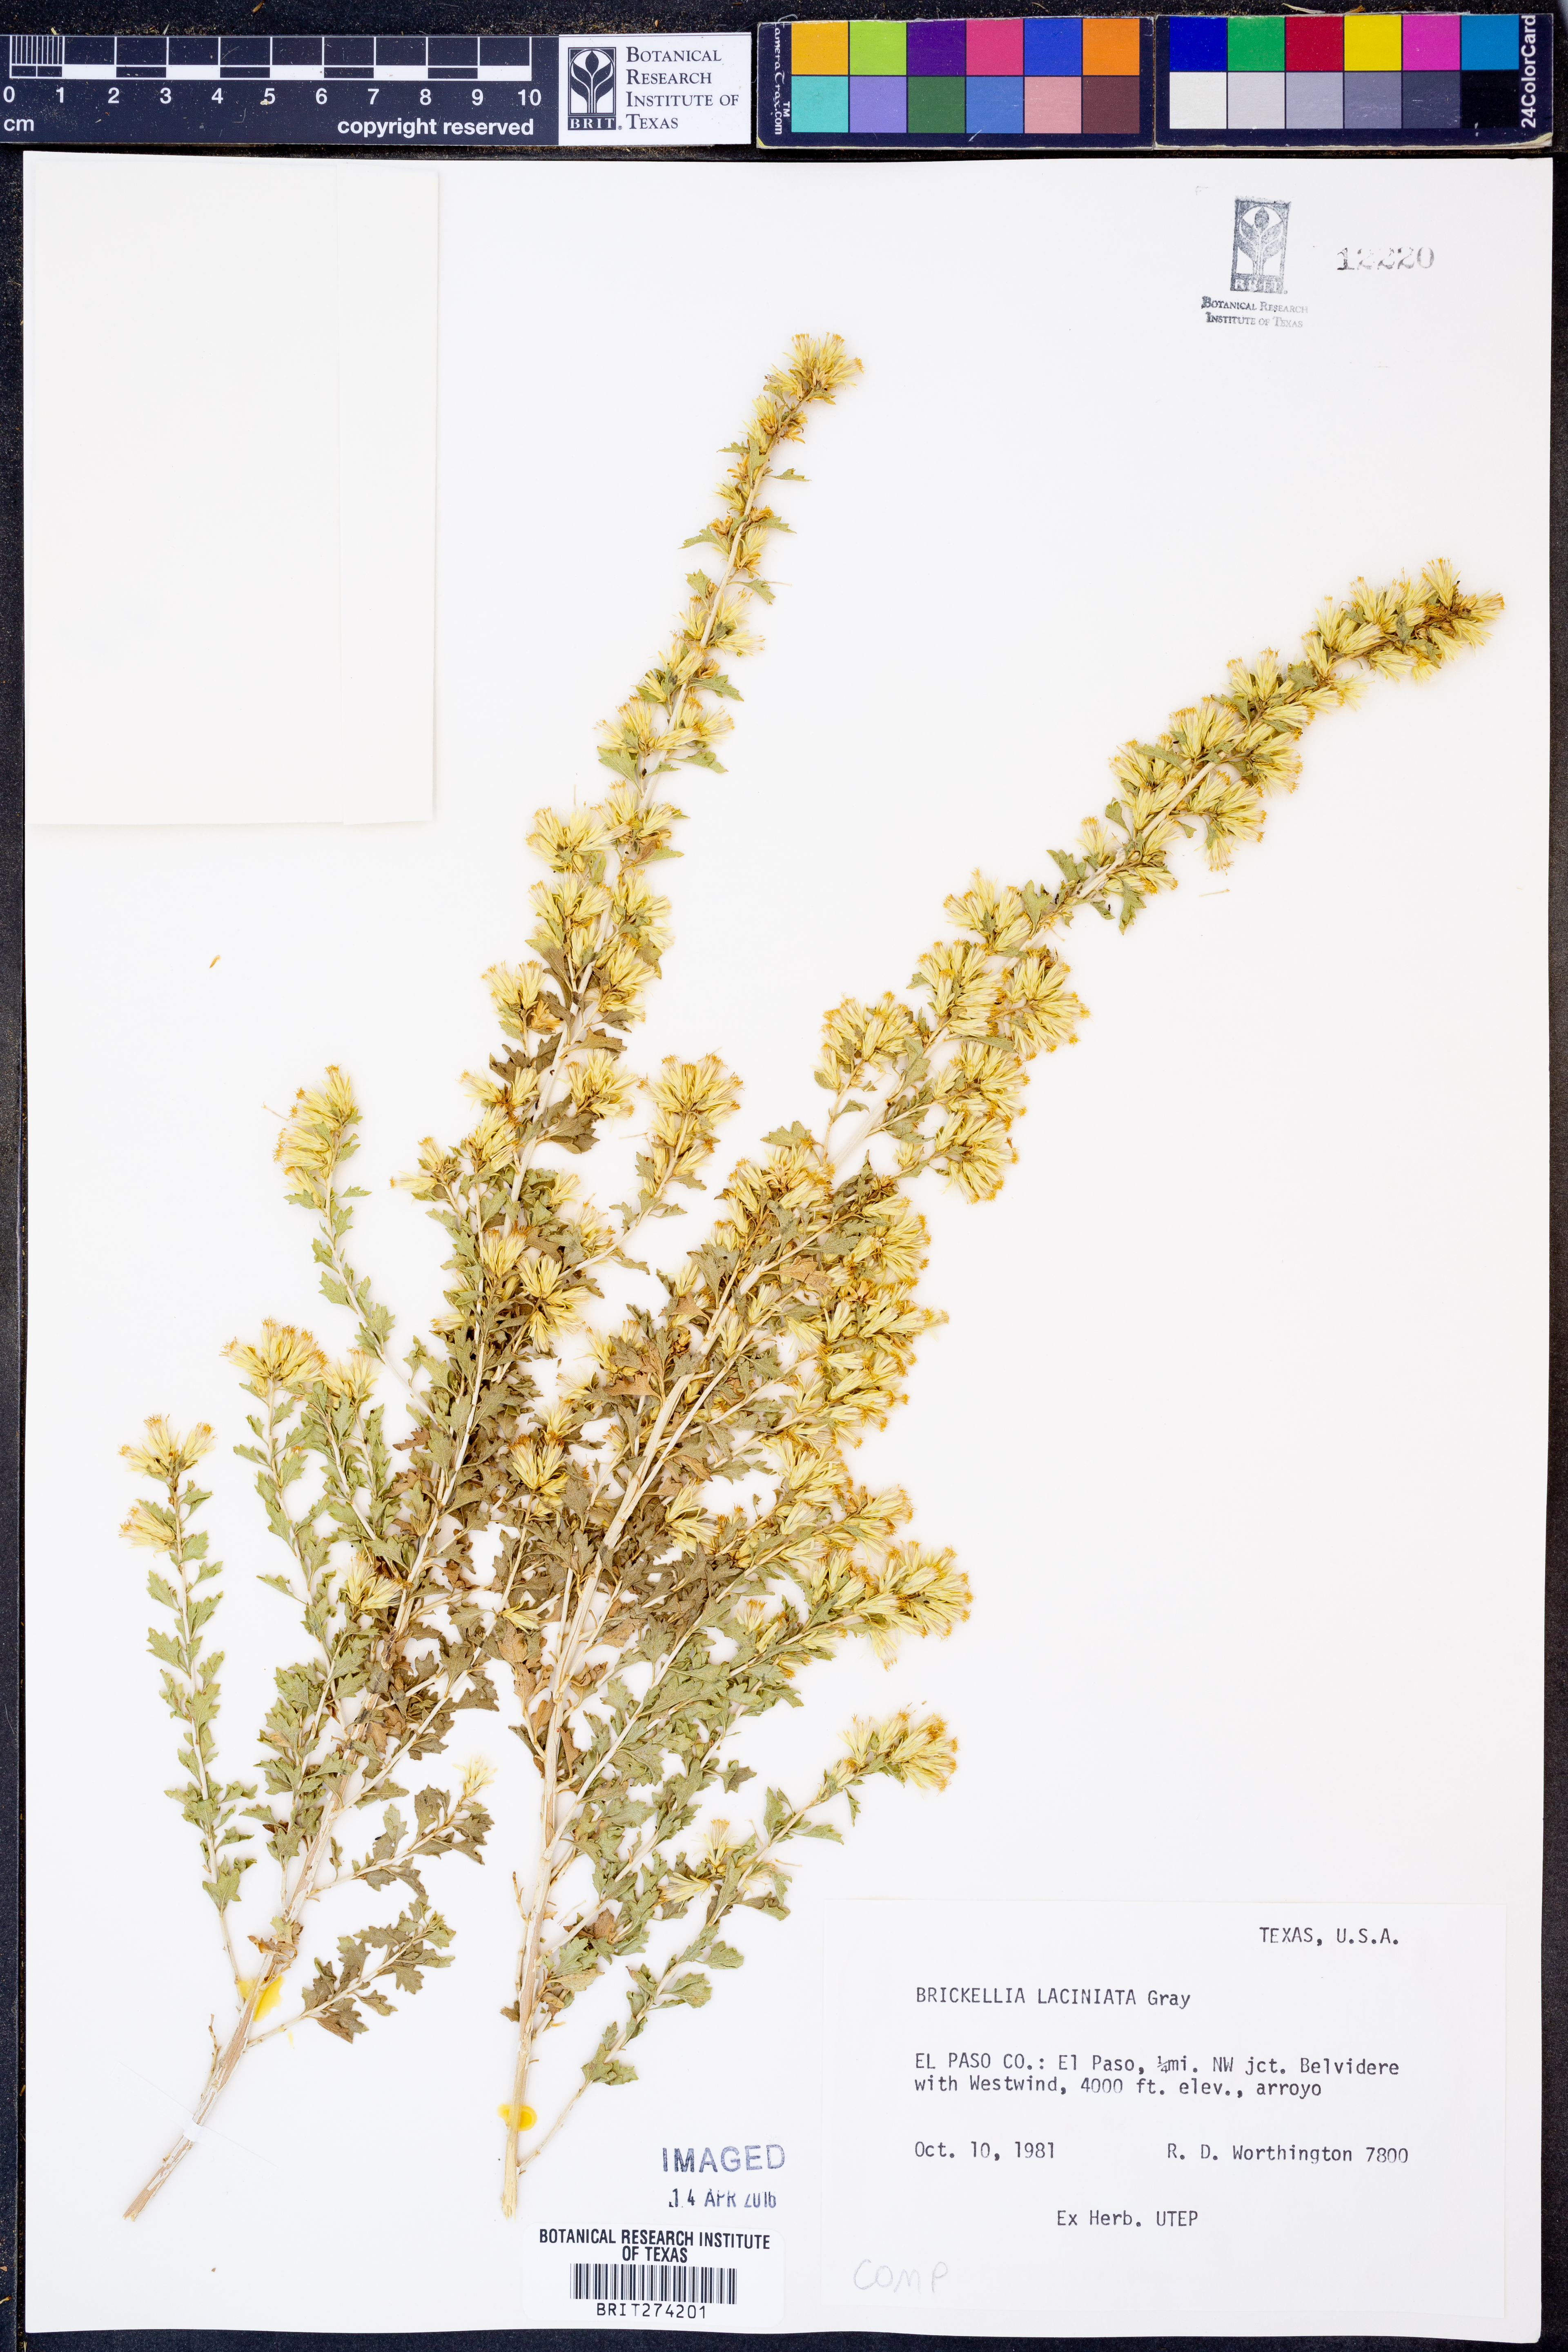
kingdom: Plantae
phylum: Tracheophyta
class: Magnoliopsida
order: Asterales
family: Asteraceae
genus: Brickellia
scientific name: Brickellia laciniata
